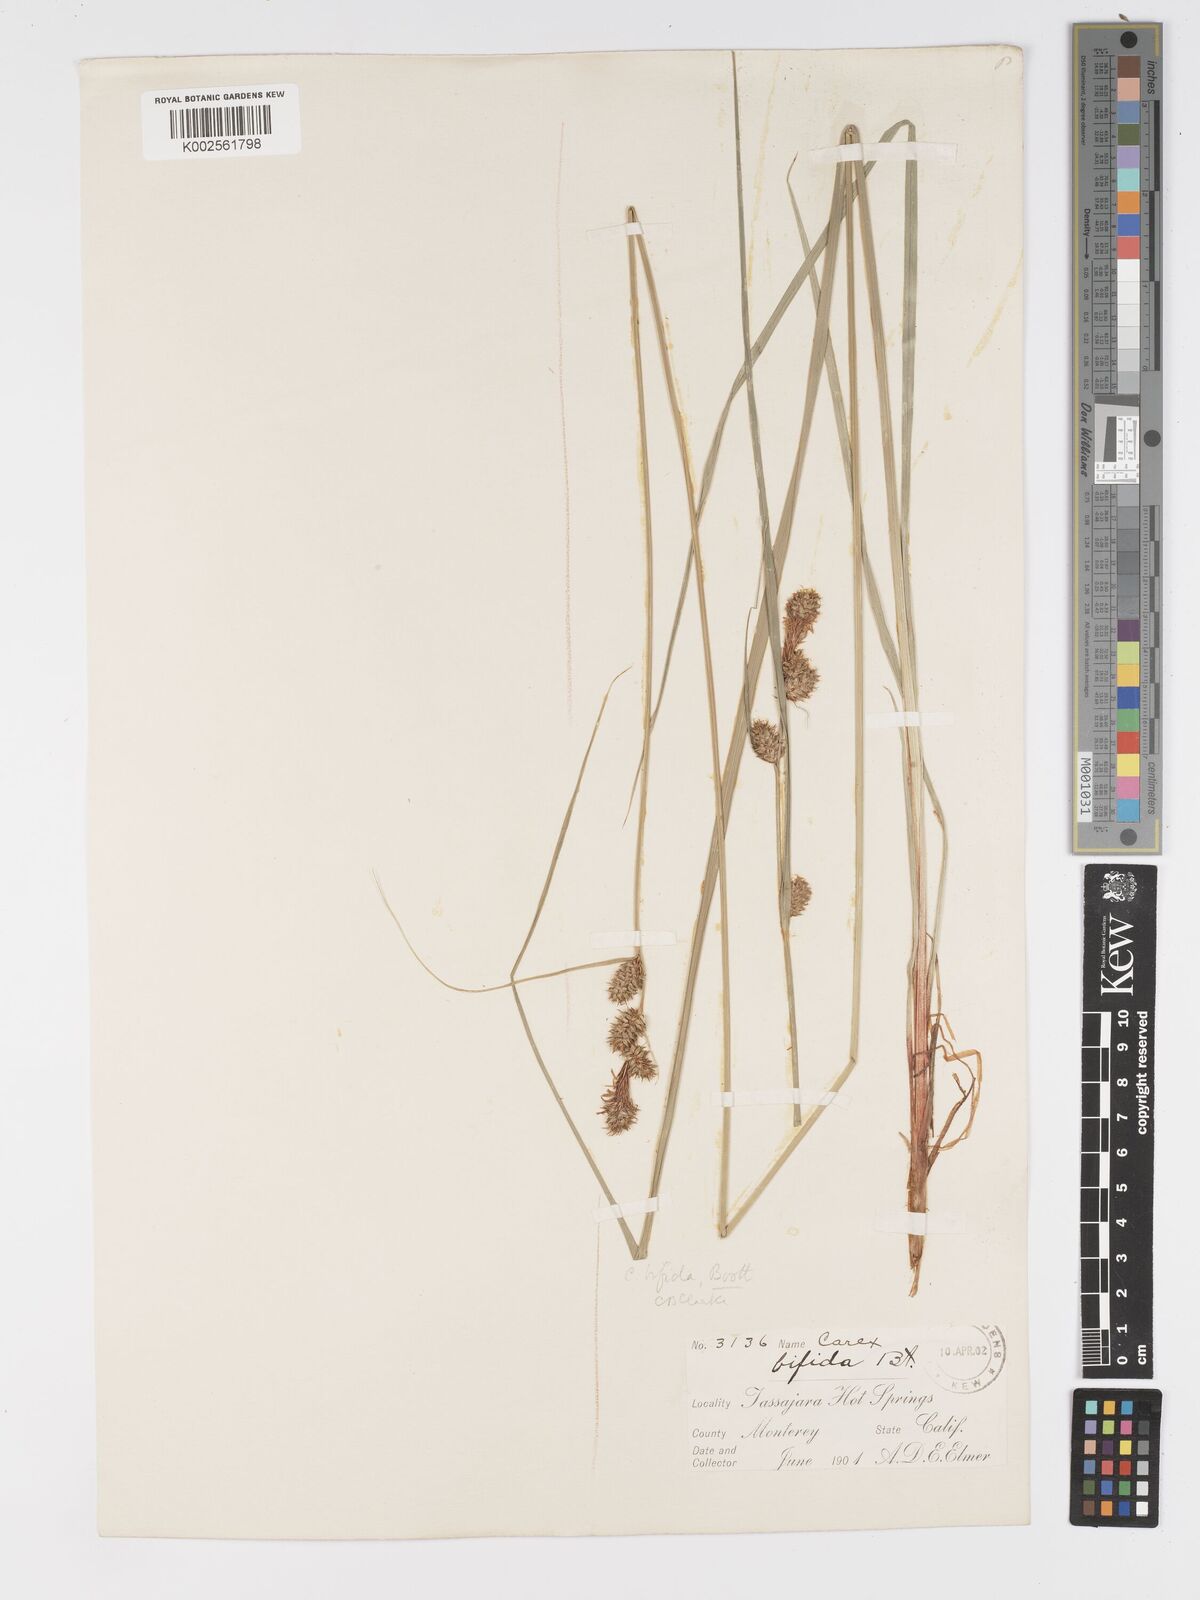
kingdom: Plantae
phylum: Tracheophyta
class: Liliopsida
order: Poales
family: Cyperaceae
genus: Carex
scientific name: Carex serratodens
